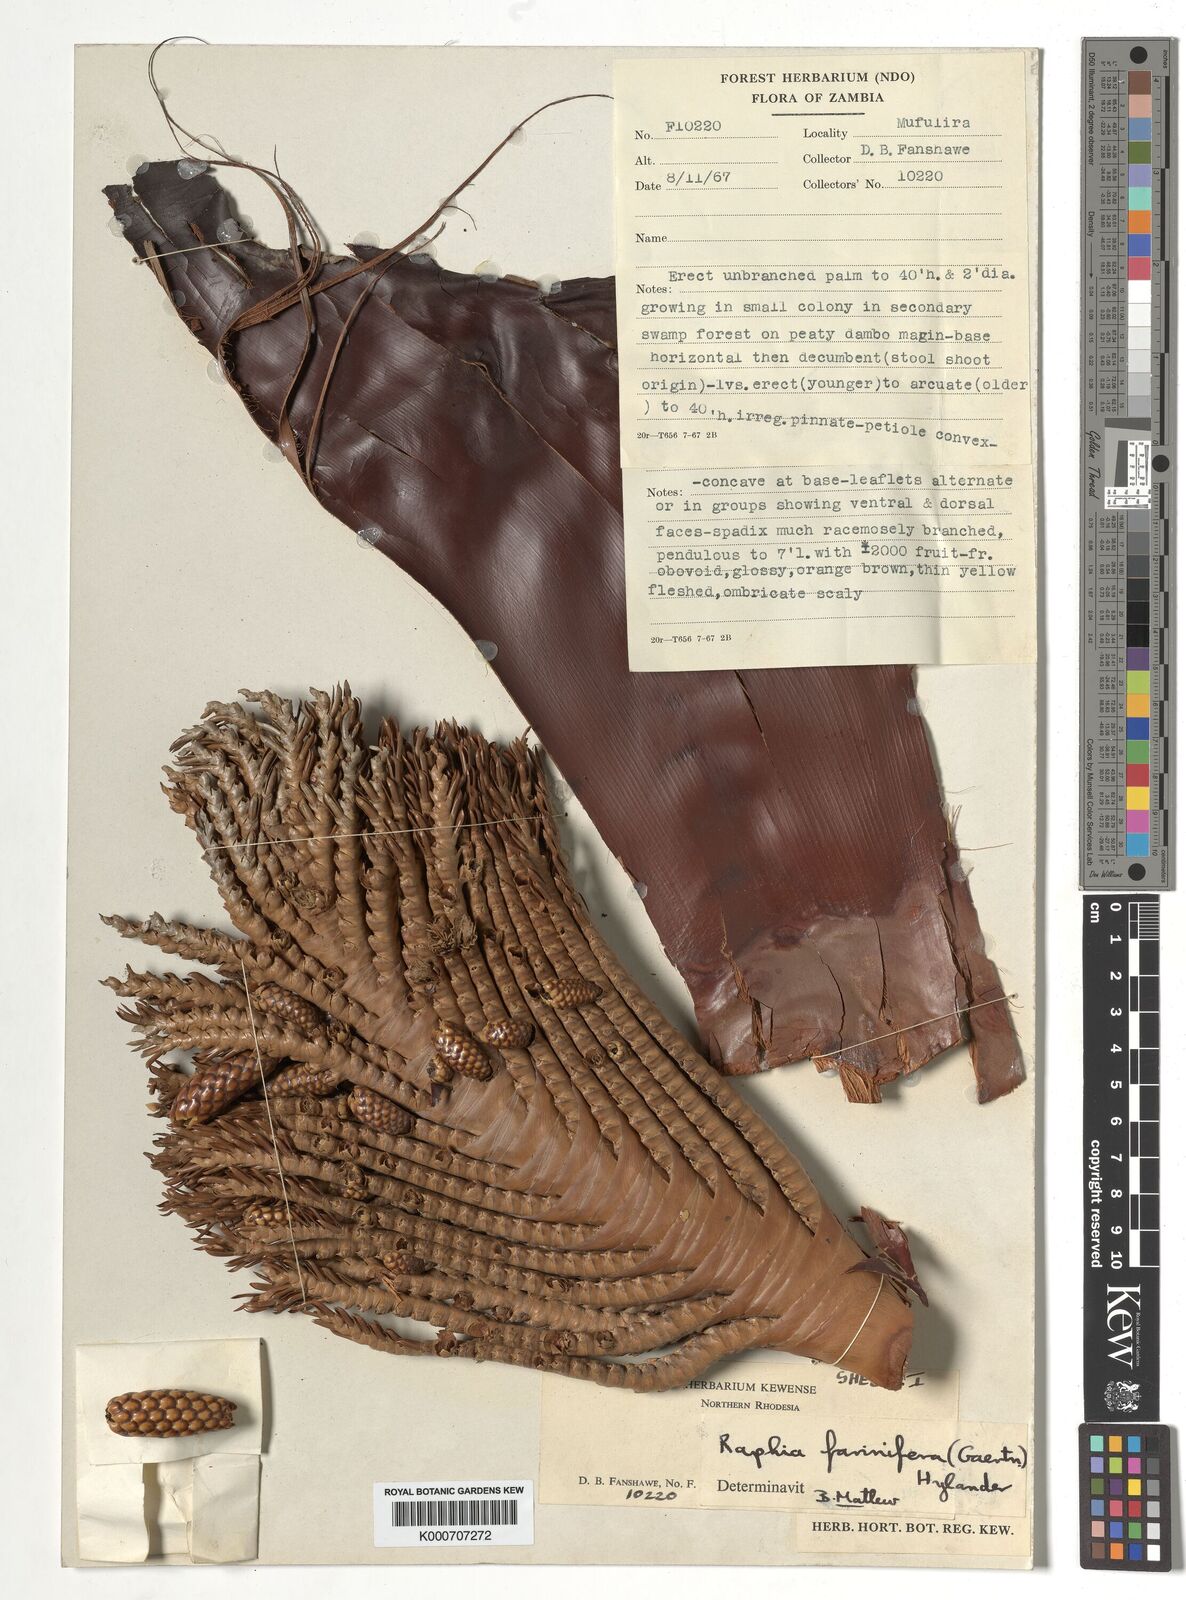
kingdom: Plantae
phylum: Tracheophyta
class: Liliopsida
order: Arecales
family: Arecaceae
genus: Raphia
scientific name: Raphia farinifera
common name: Raphia palm
